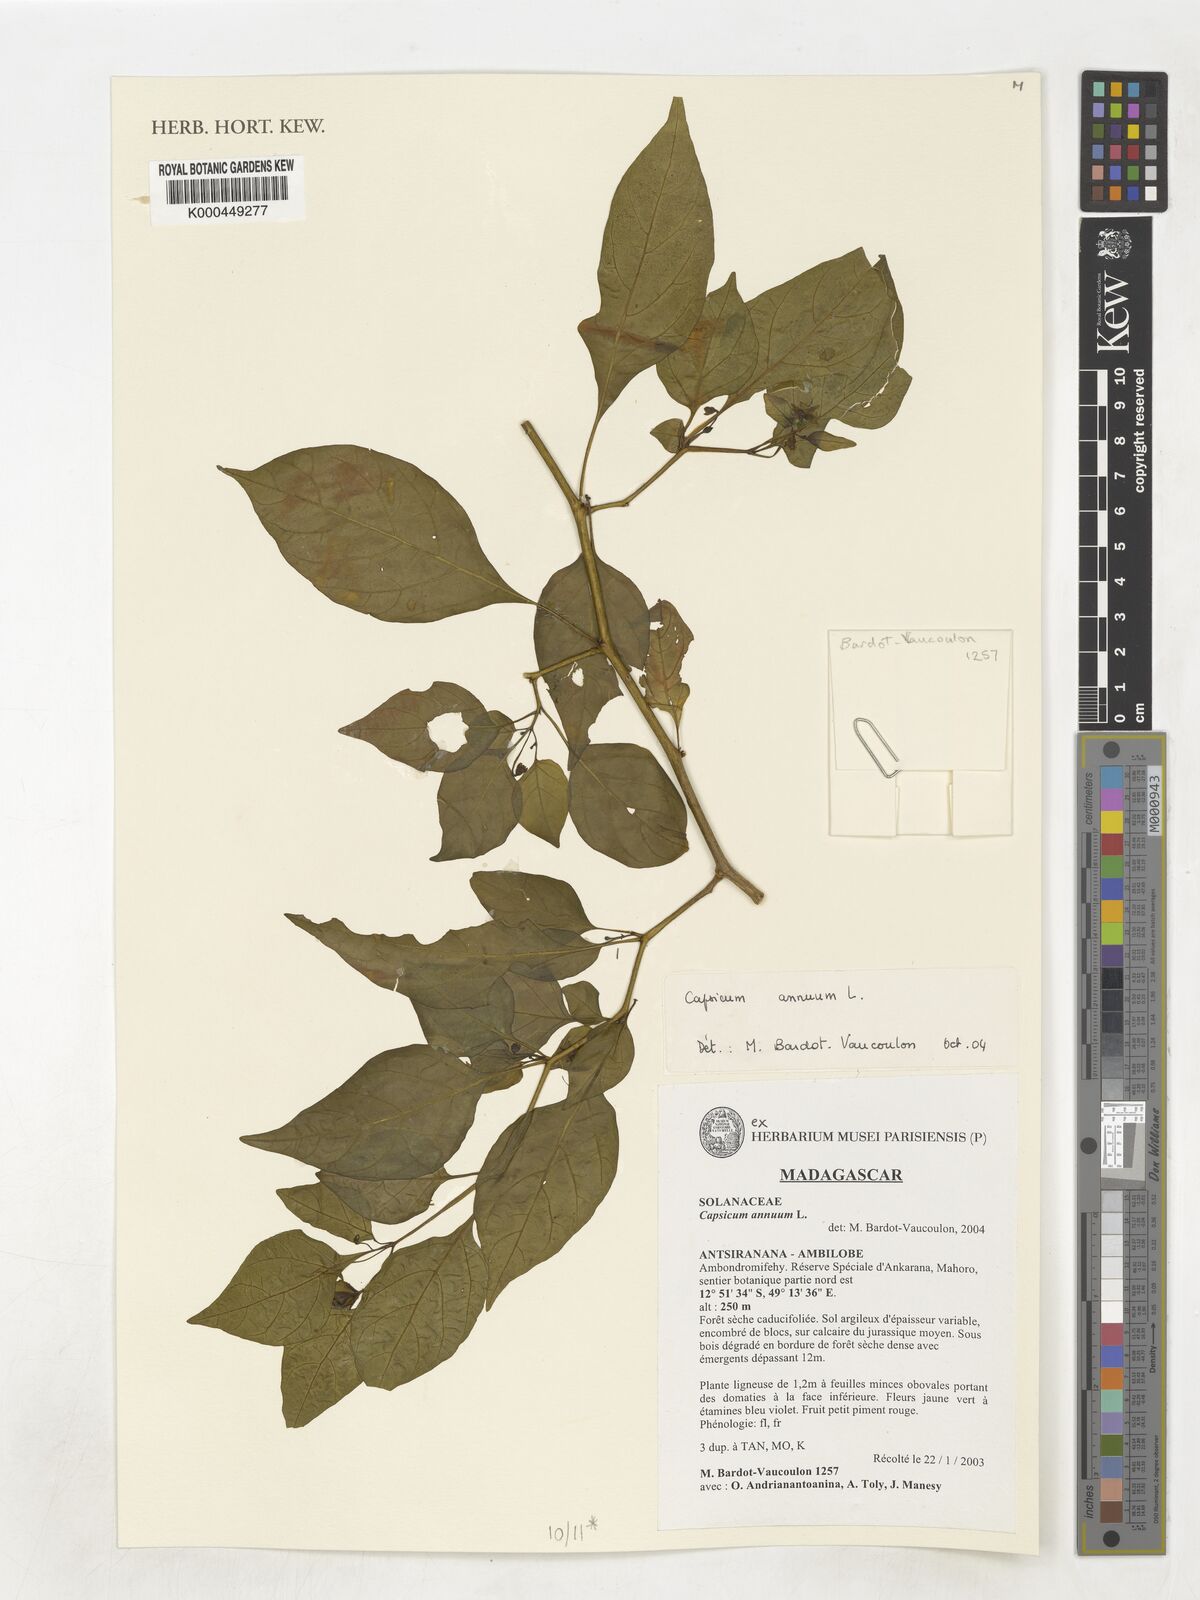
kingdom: Plantae
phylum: Tracheophyta
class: Magnoliopsida
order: Solanales
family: Solanaceae
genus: Capsicum
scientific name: Capsicum annuum
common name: Sweet pepper
